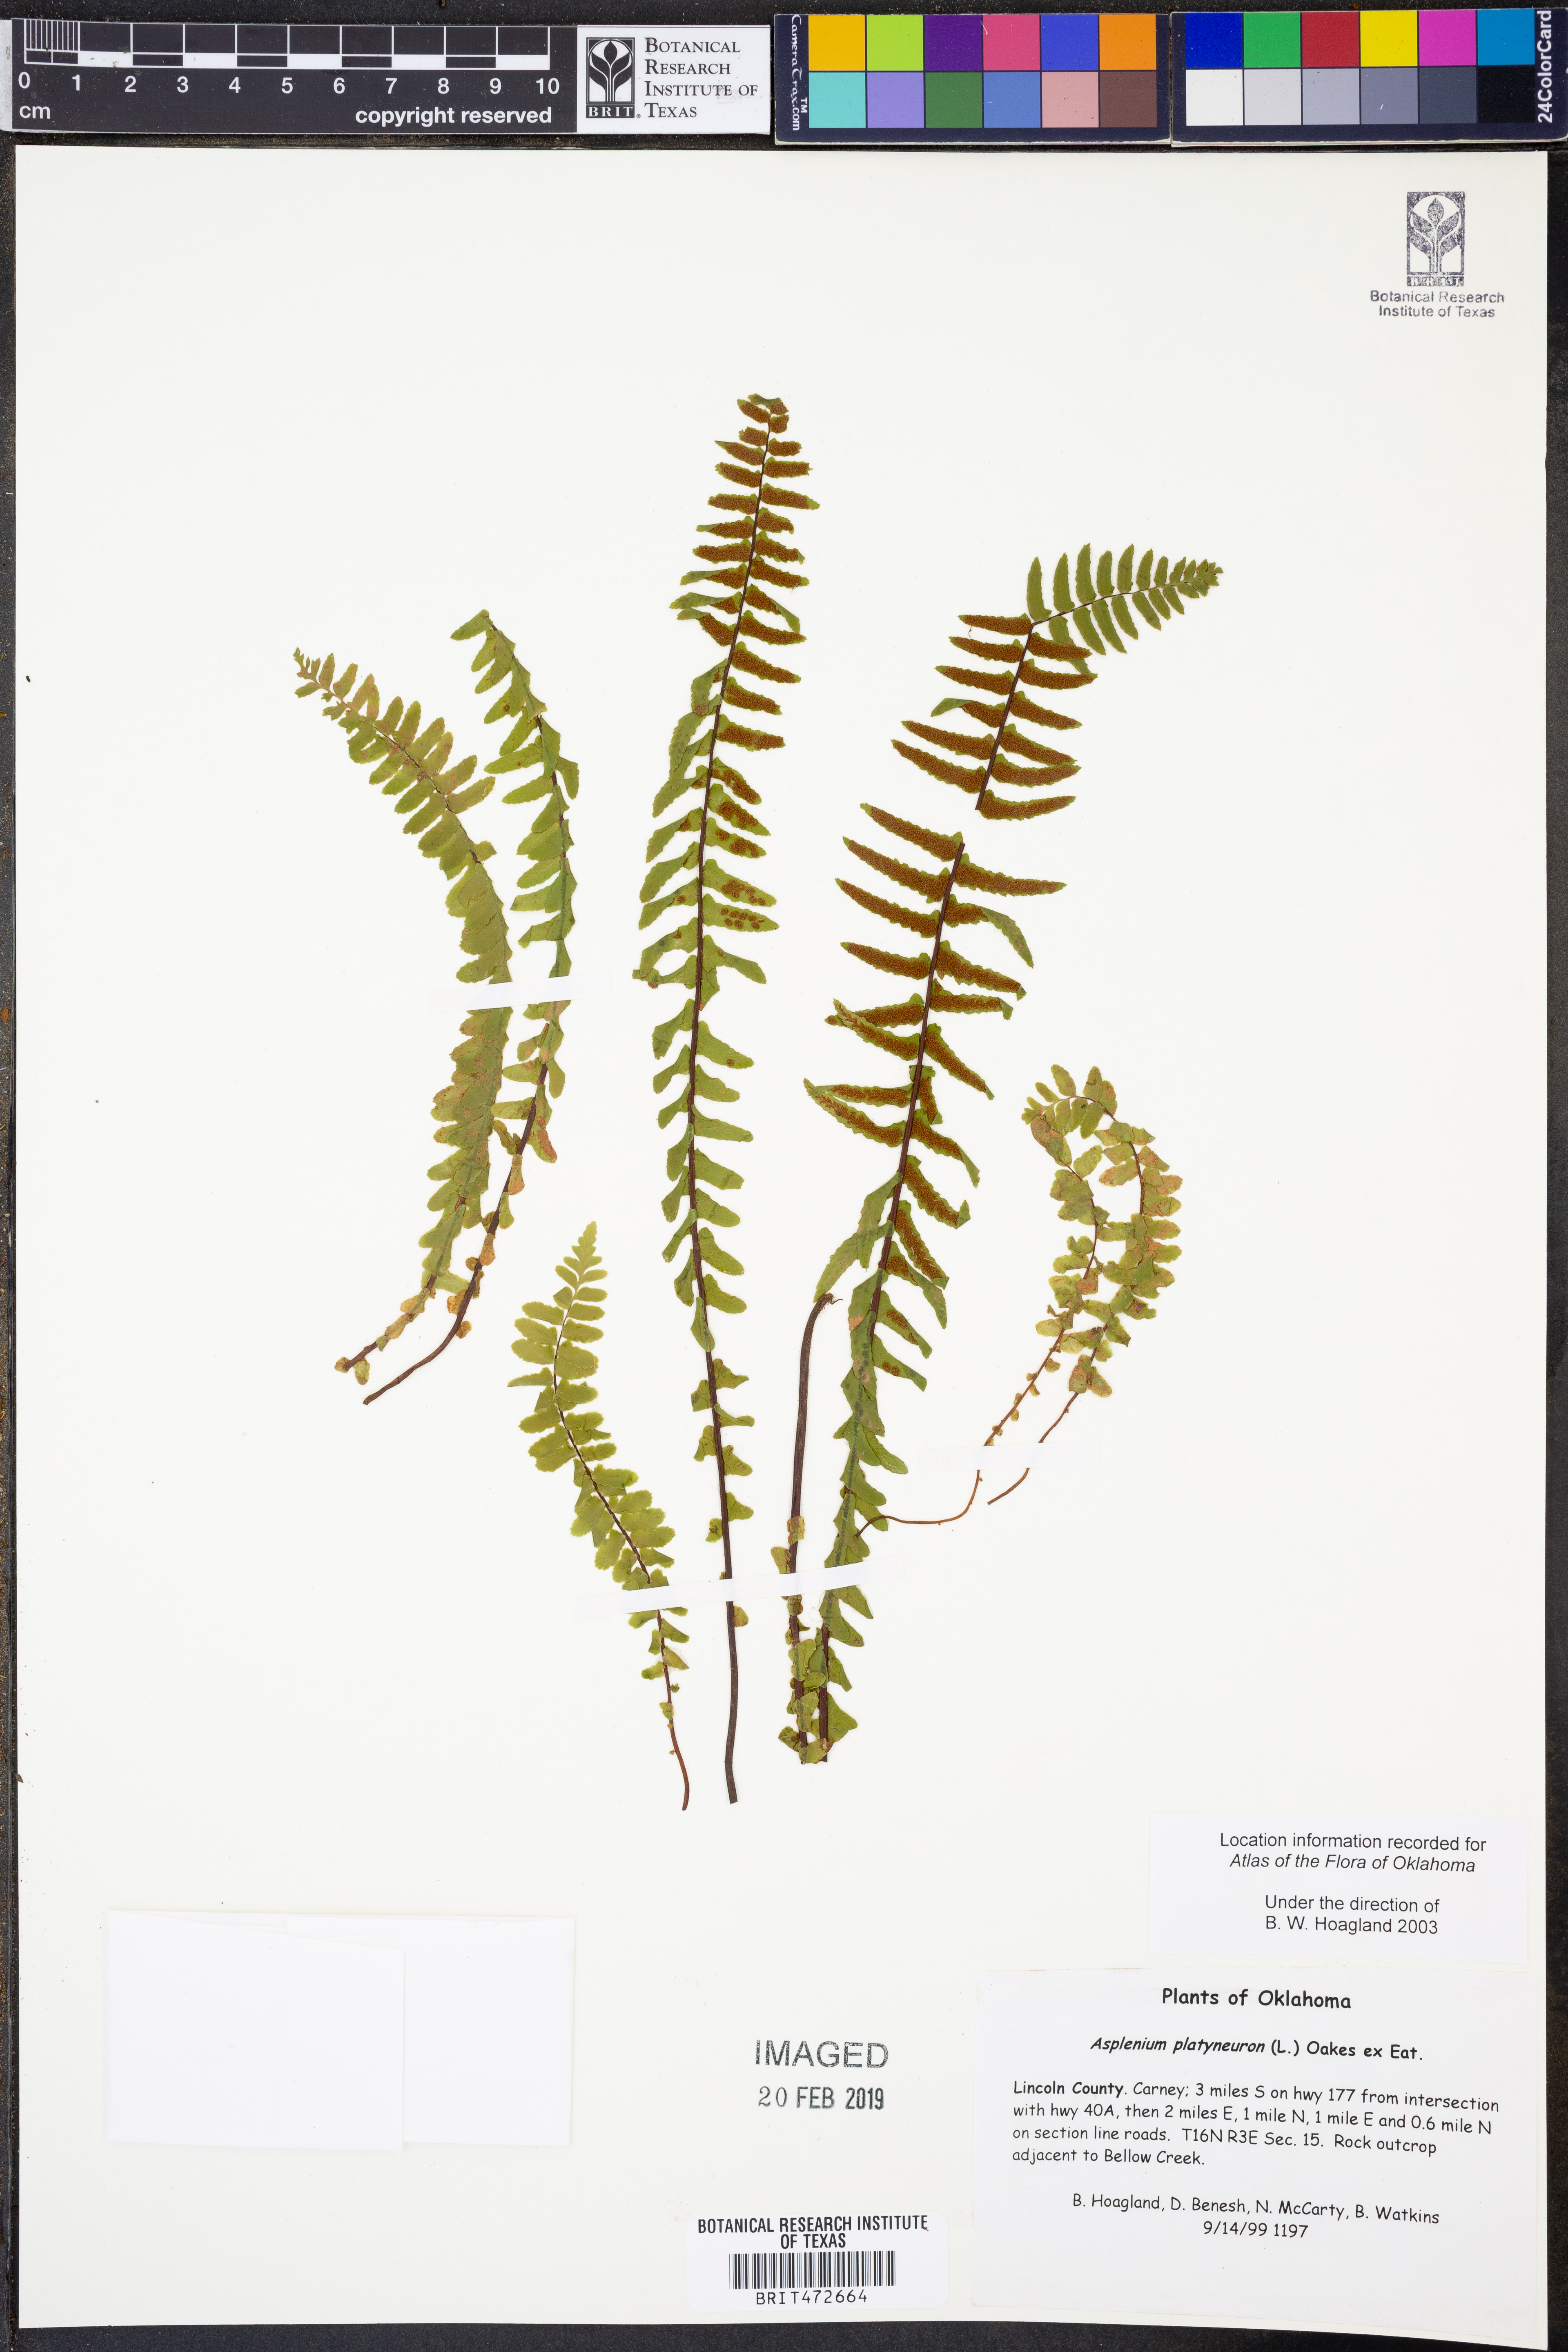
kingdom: Plantae
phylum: Tracheophyta
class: Polypodiopsida
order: Polypodiales
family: Aspleniaceae
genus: Asplenium
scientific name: Asplenium platyneuron
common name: Ebony spleenwort
